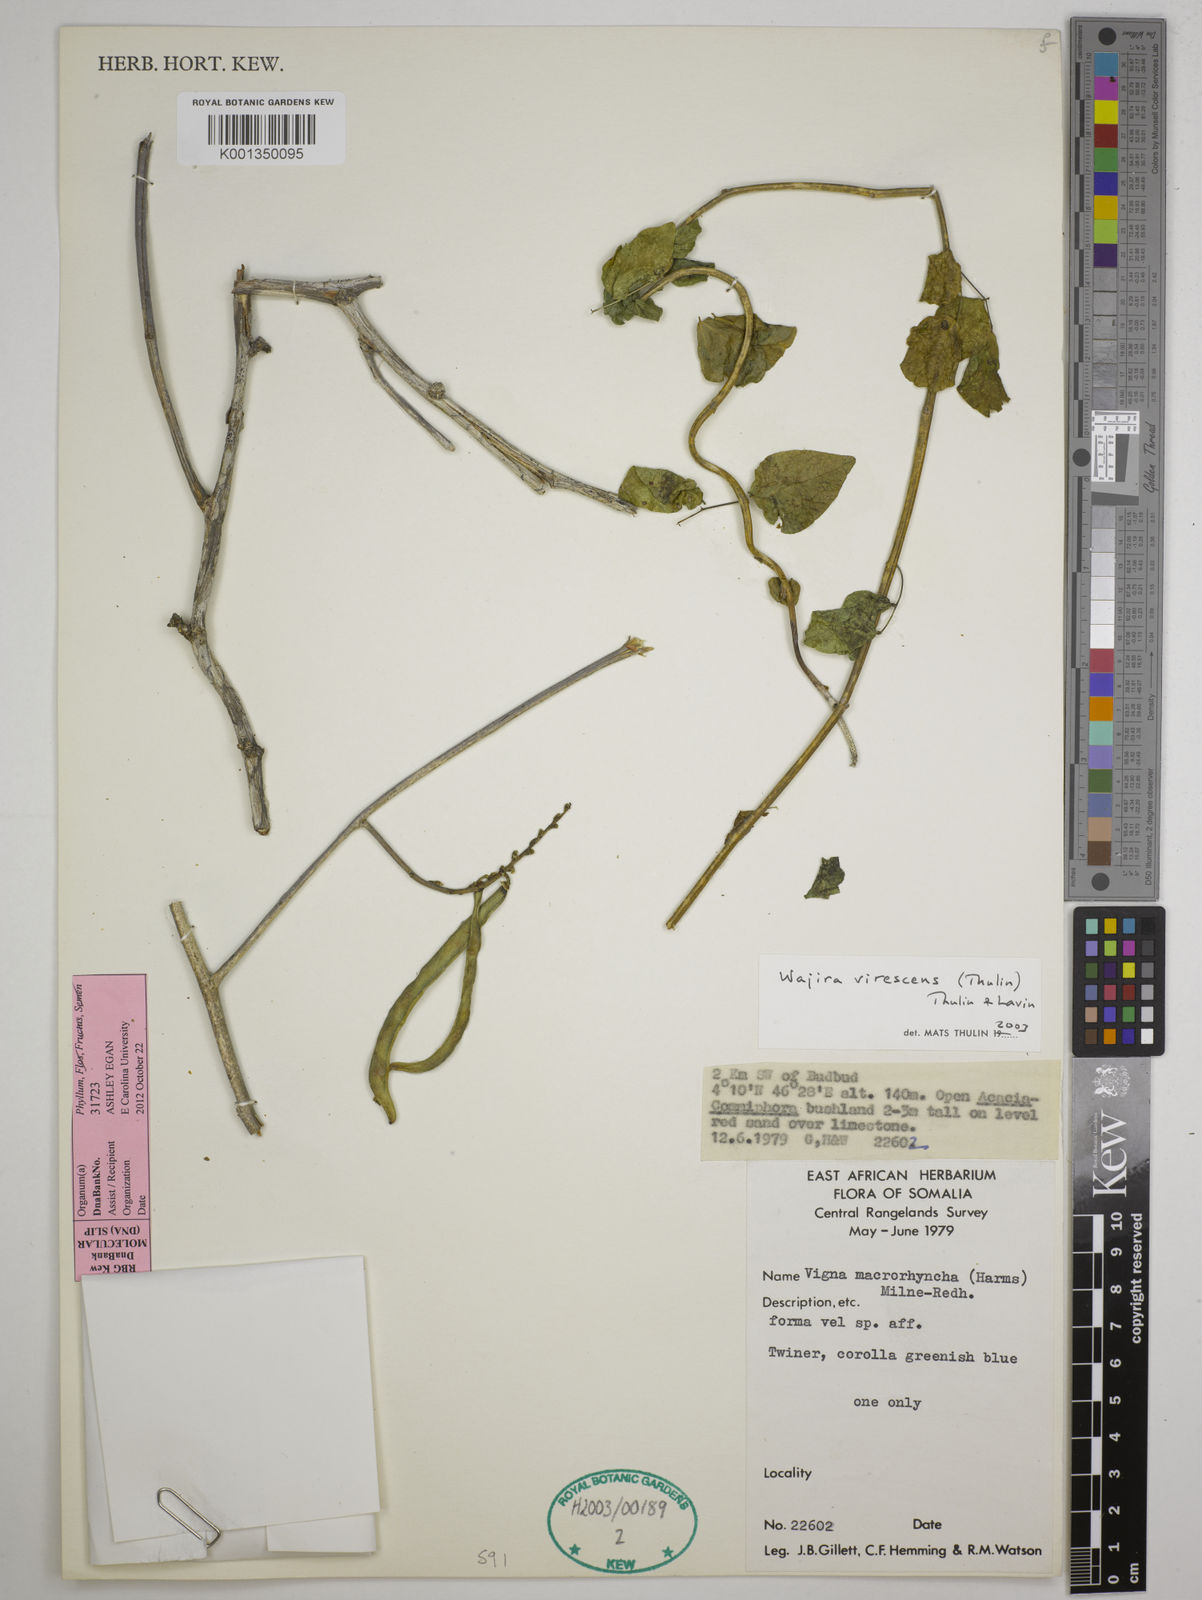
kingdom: Plantae
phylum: Tracheophyta
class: Magnoliopsida
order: Fabales
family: Fabaceae
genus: Wajira
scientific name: Wajira virescens
